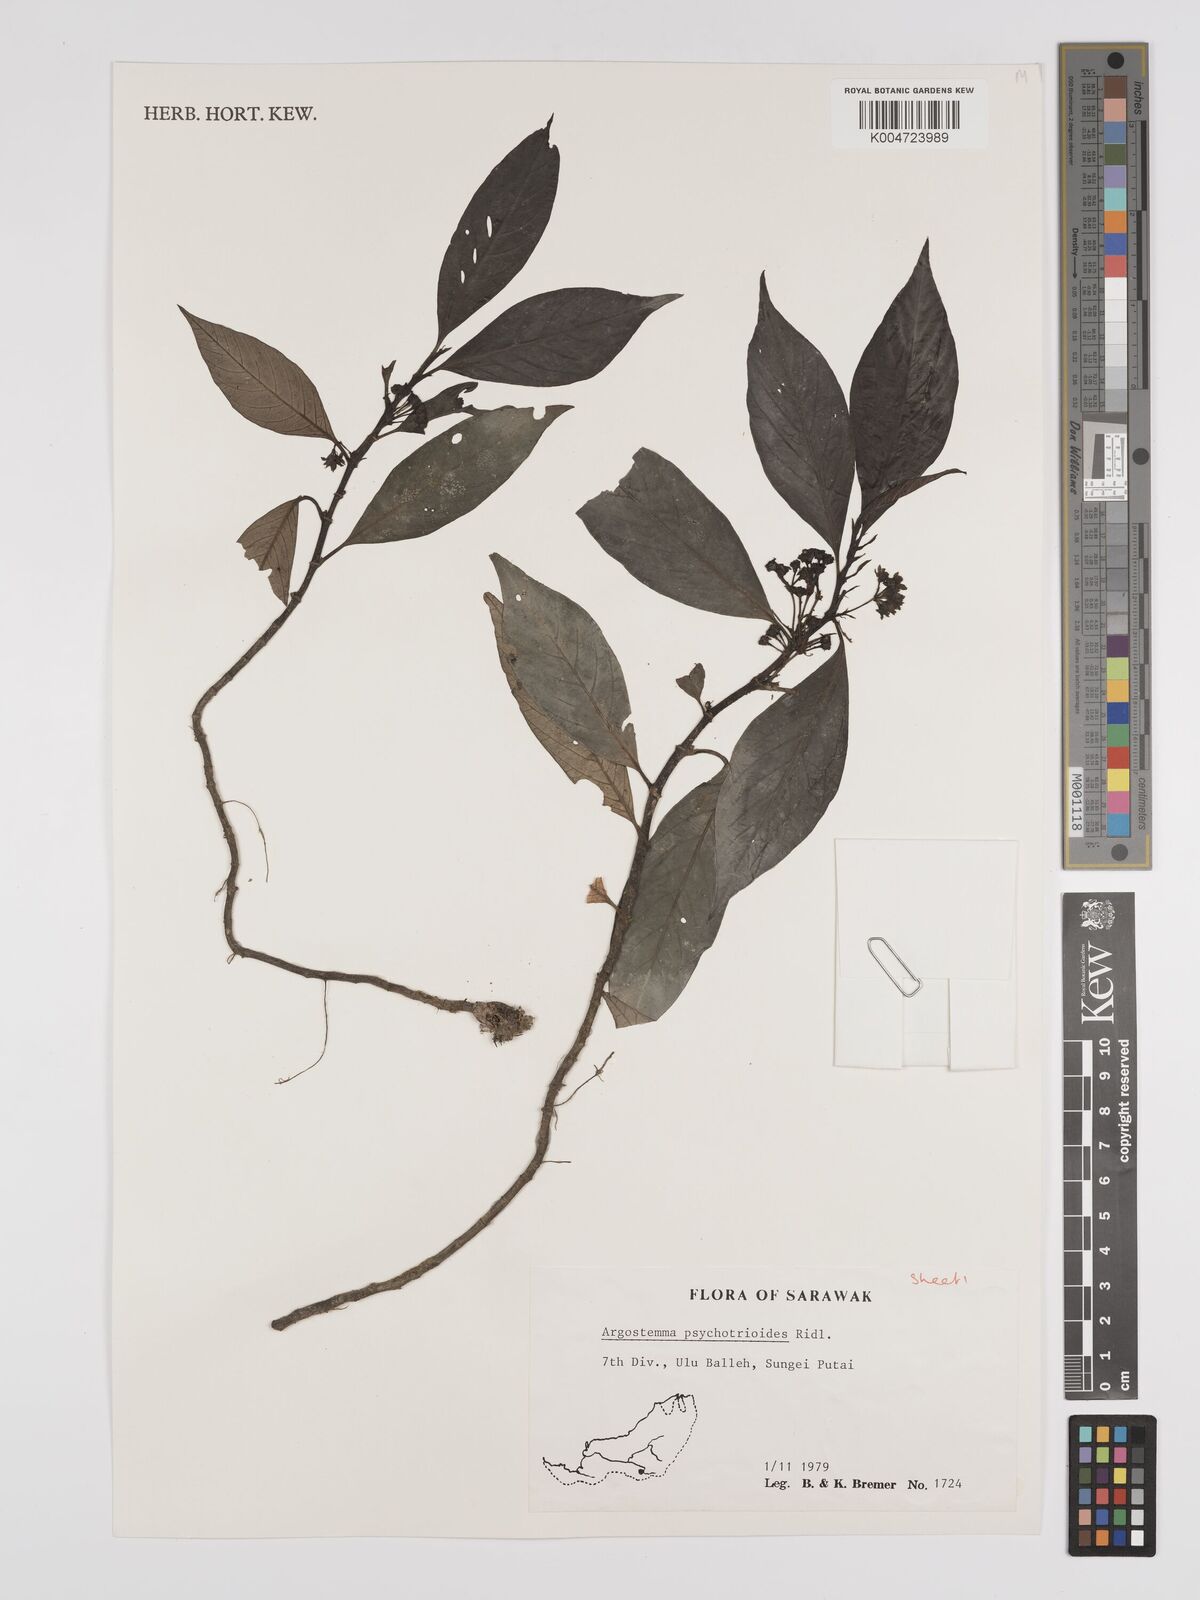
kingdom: Plantae
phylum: Tracheophyta
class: Magnoliopsida
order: Gentianales
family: Rubiaceae
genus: Argostemma
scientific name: Argostemma psychotrioides
